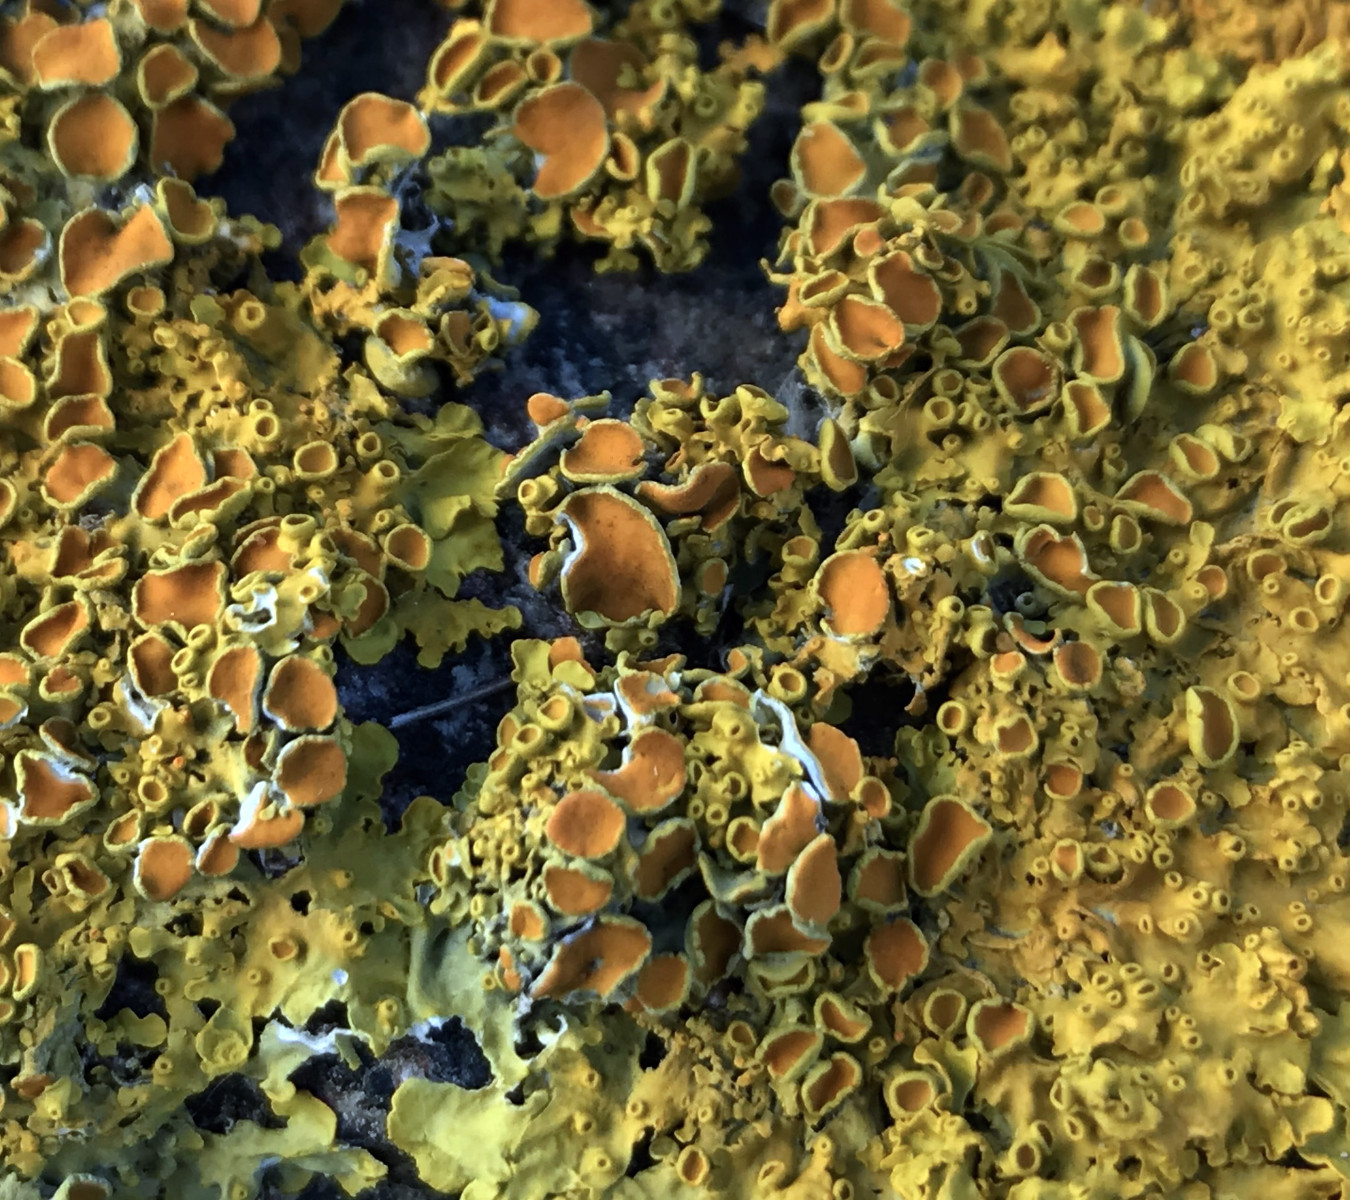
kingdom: Fungi
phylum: Ascomycota
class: Lecanoromycetes
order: Teloschistales
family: Teloschistaceae
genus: Xanthoria
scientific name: Xanthoria parietina
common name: almindelig væggelav
